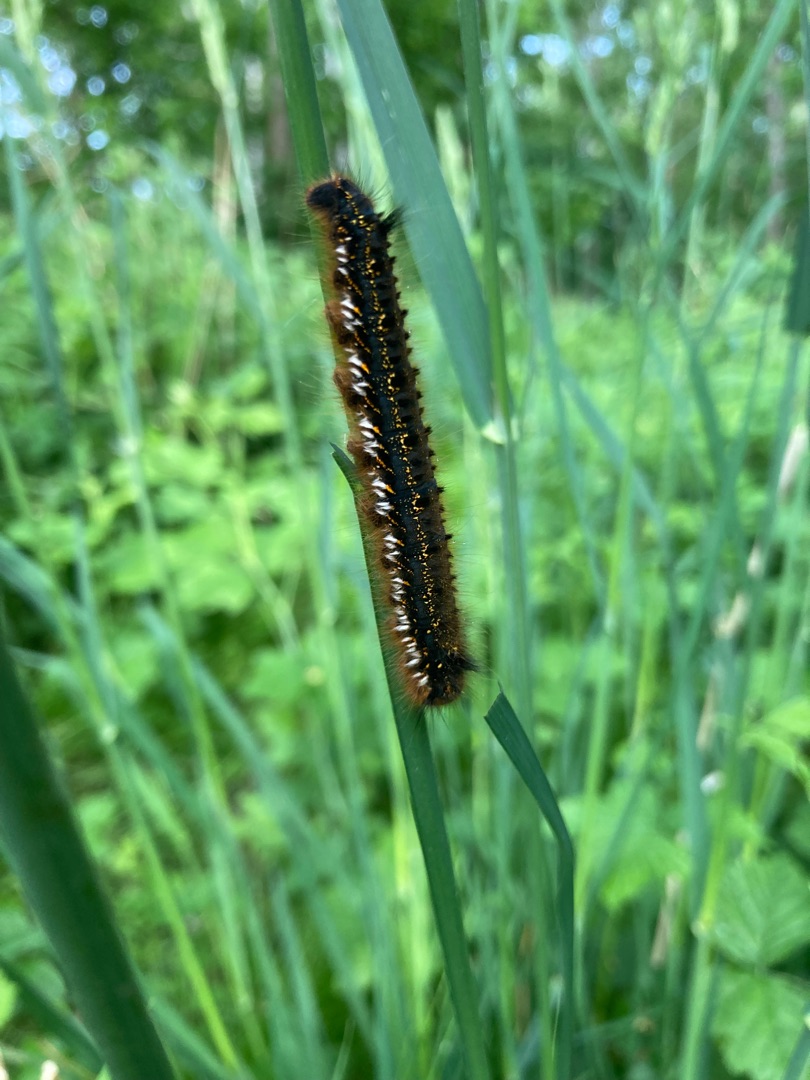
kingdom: Animalia
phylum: Arthropoda
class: Insecta
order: Lepidoptera
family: Lasiocampidae
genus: Euthrix
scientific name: Euthrix potatoria
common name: Græsspinder
